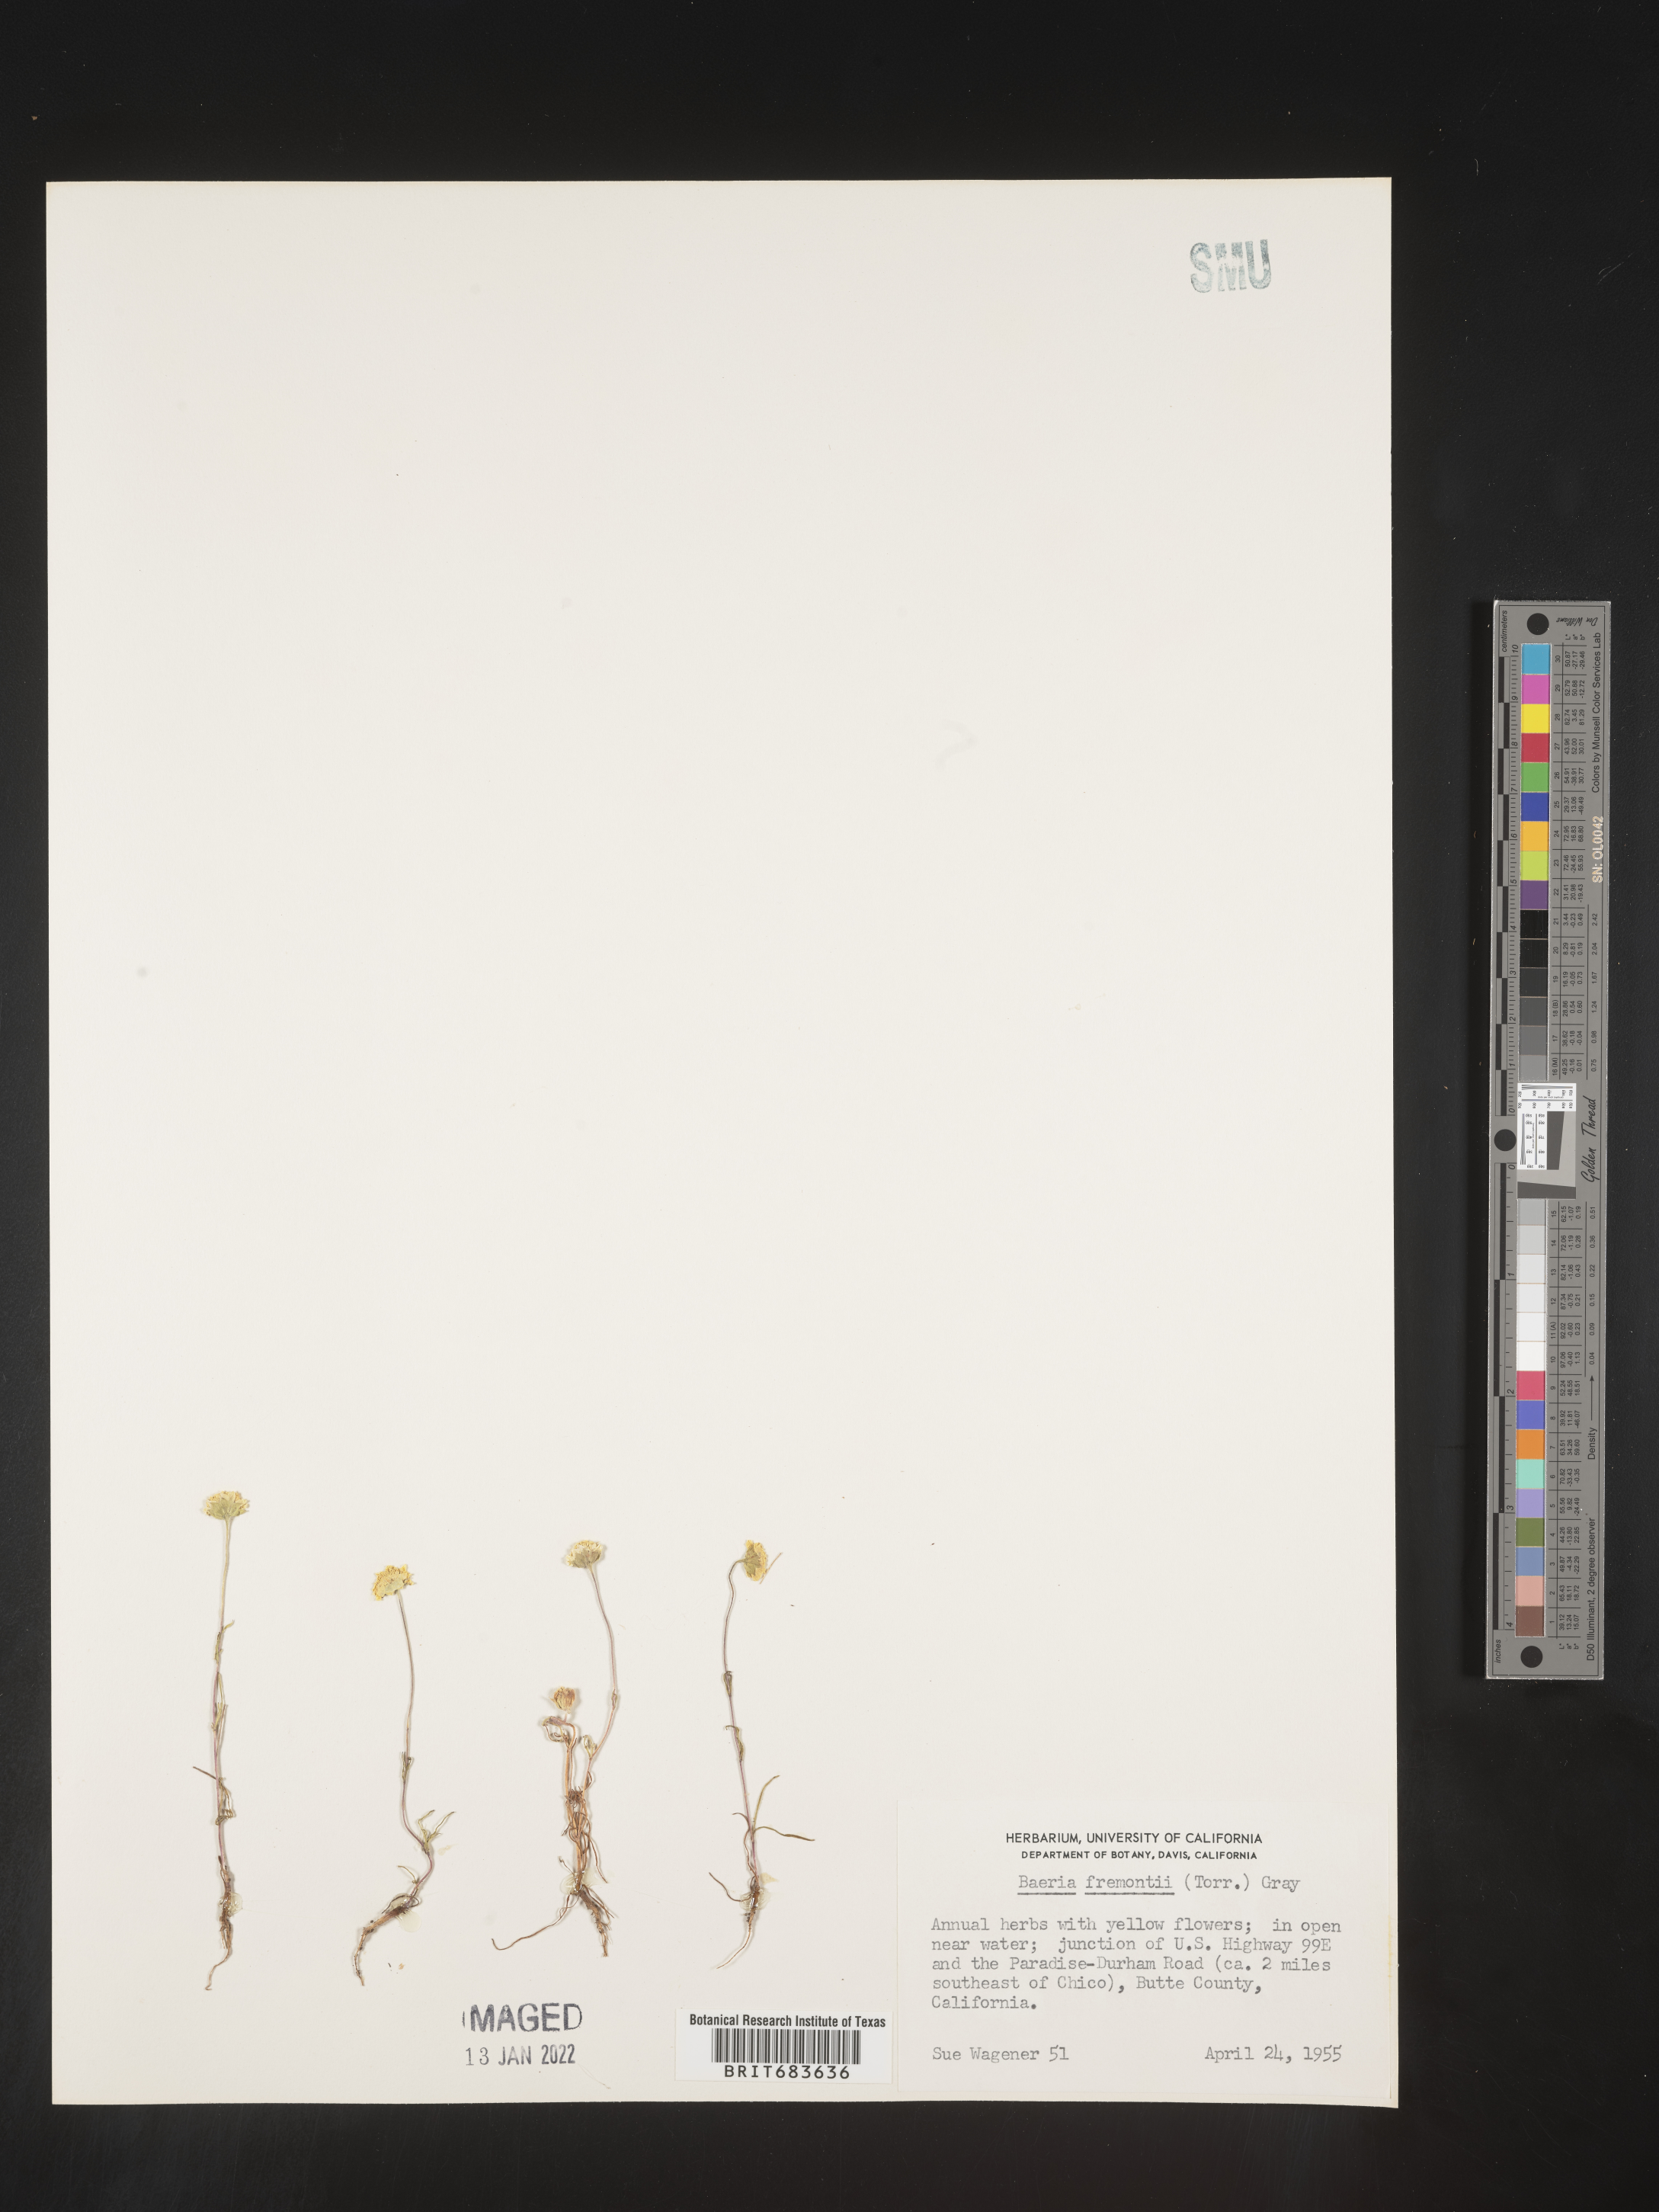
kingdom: Plantae
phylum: Tracheophyta
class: Magnoliopsida
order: Asterales
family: Asteraceae
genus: Lasthenia
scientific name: Lasthenia
